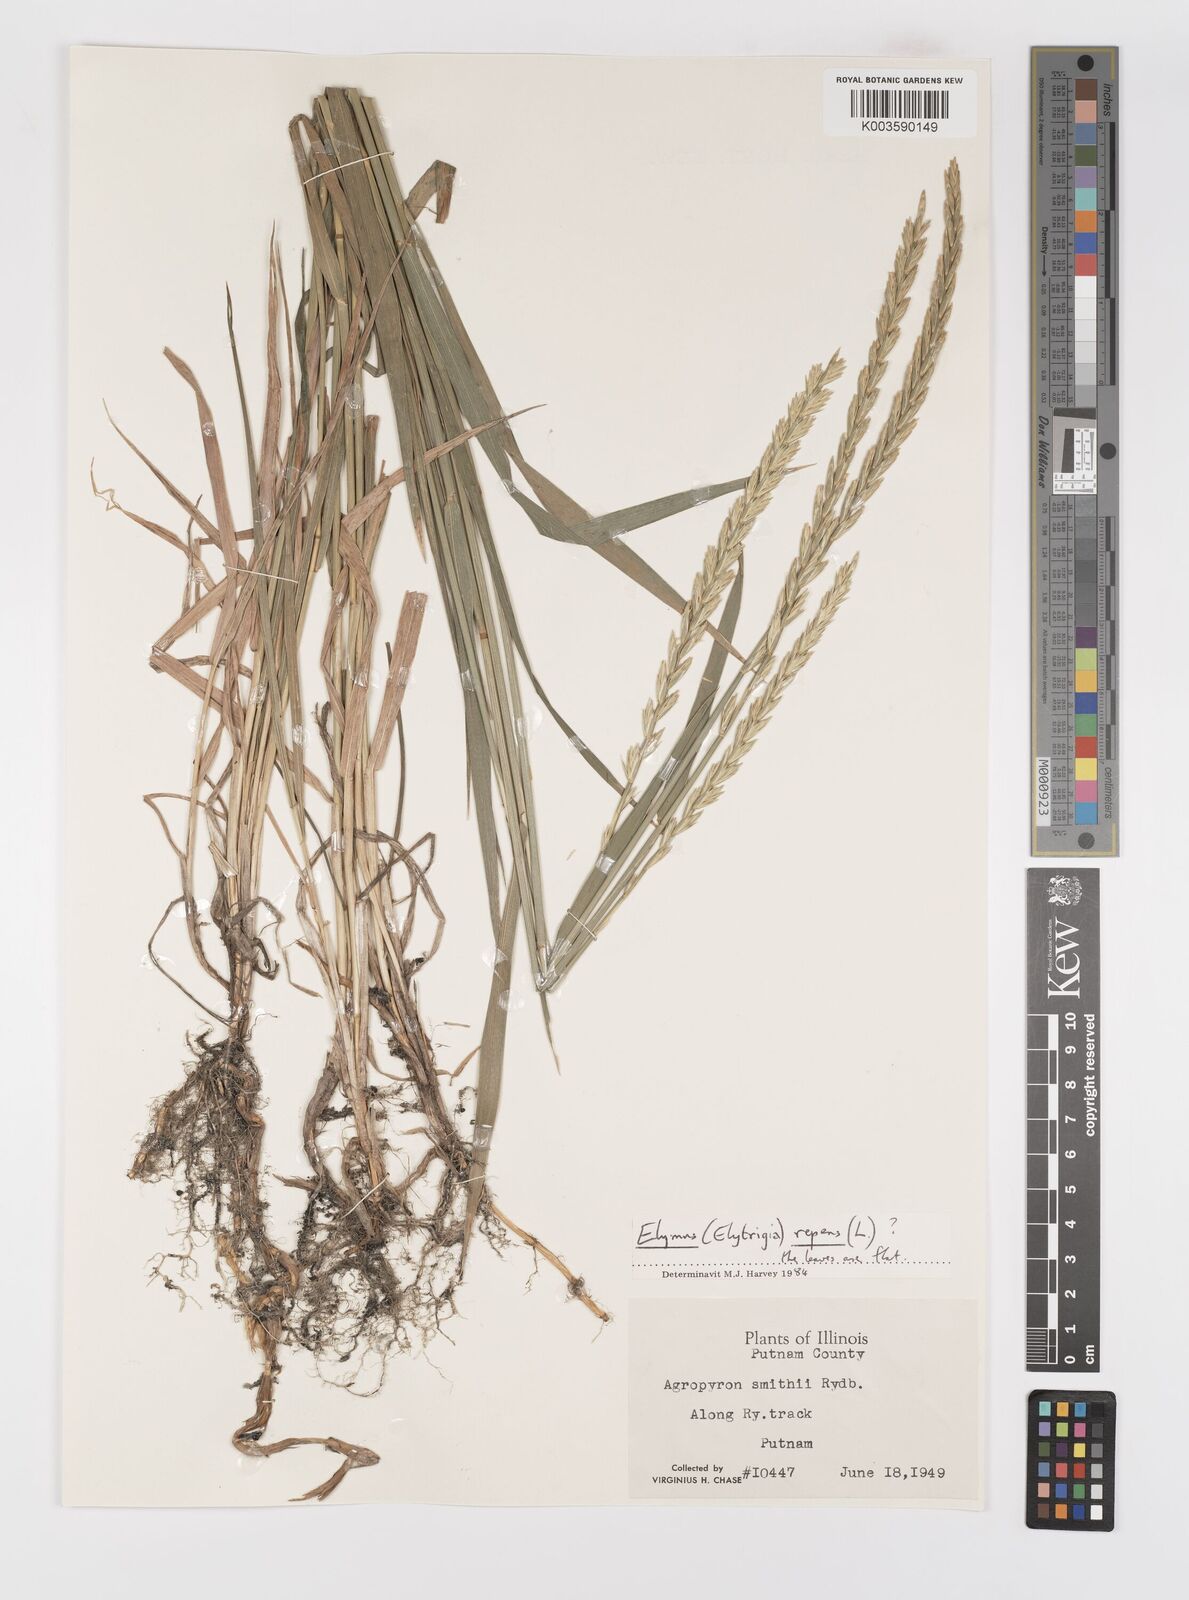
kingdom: Plantae
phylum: Tracheophyta
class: Liliopsida
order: Poales
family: Poaceae
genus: Elymus
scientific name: Elymus smithii
